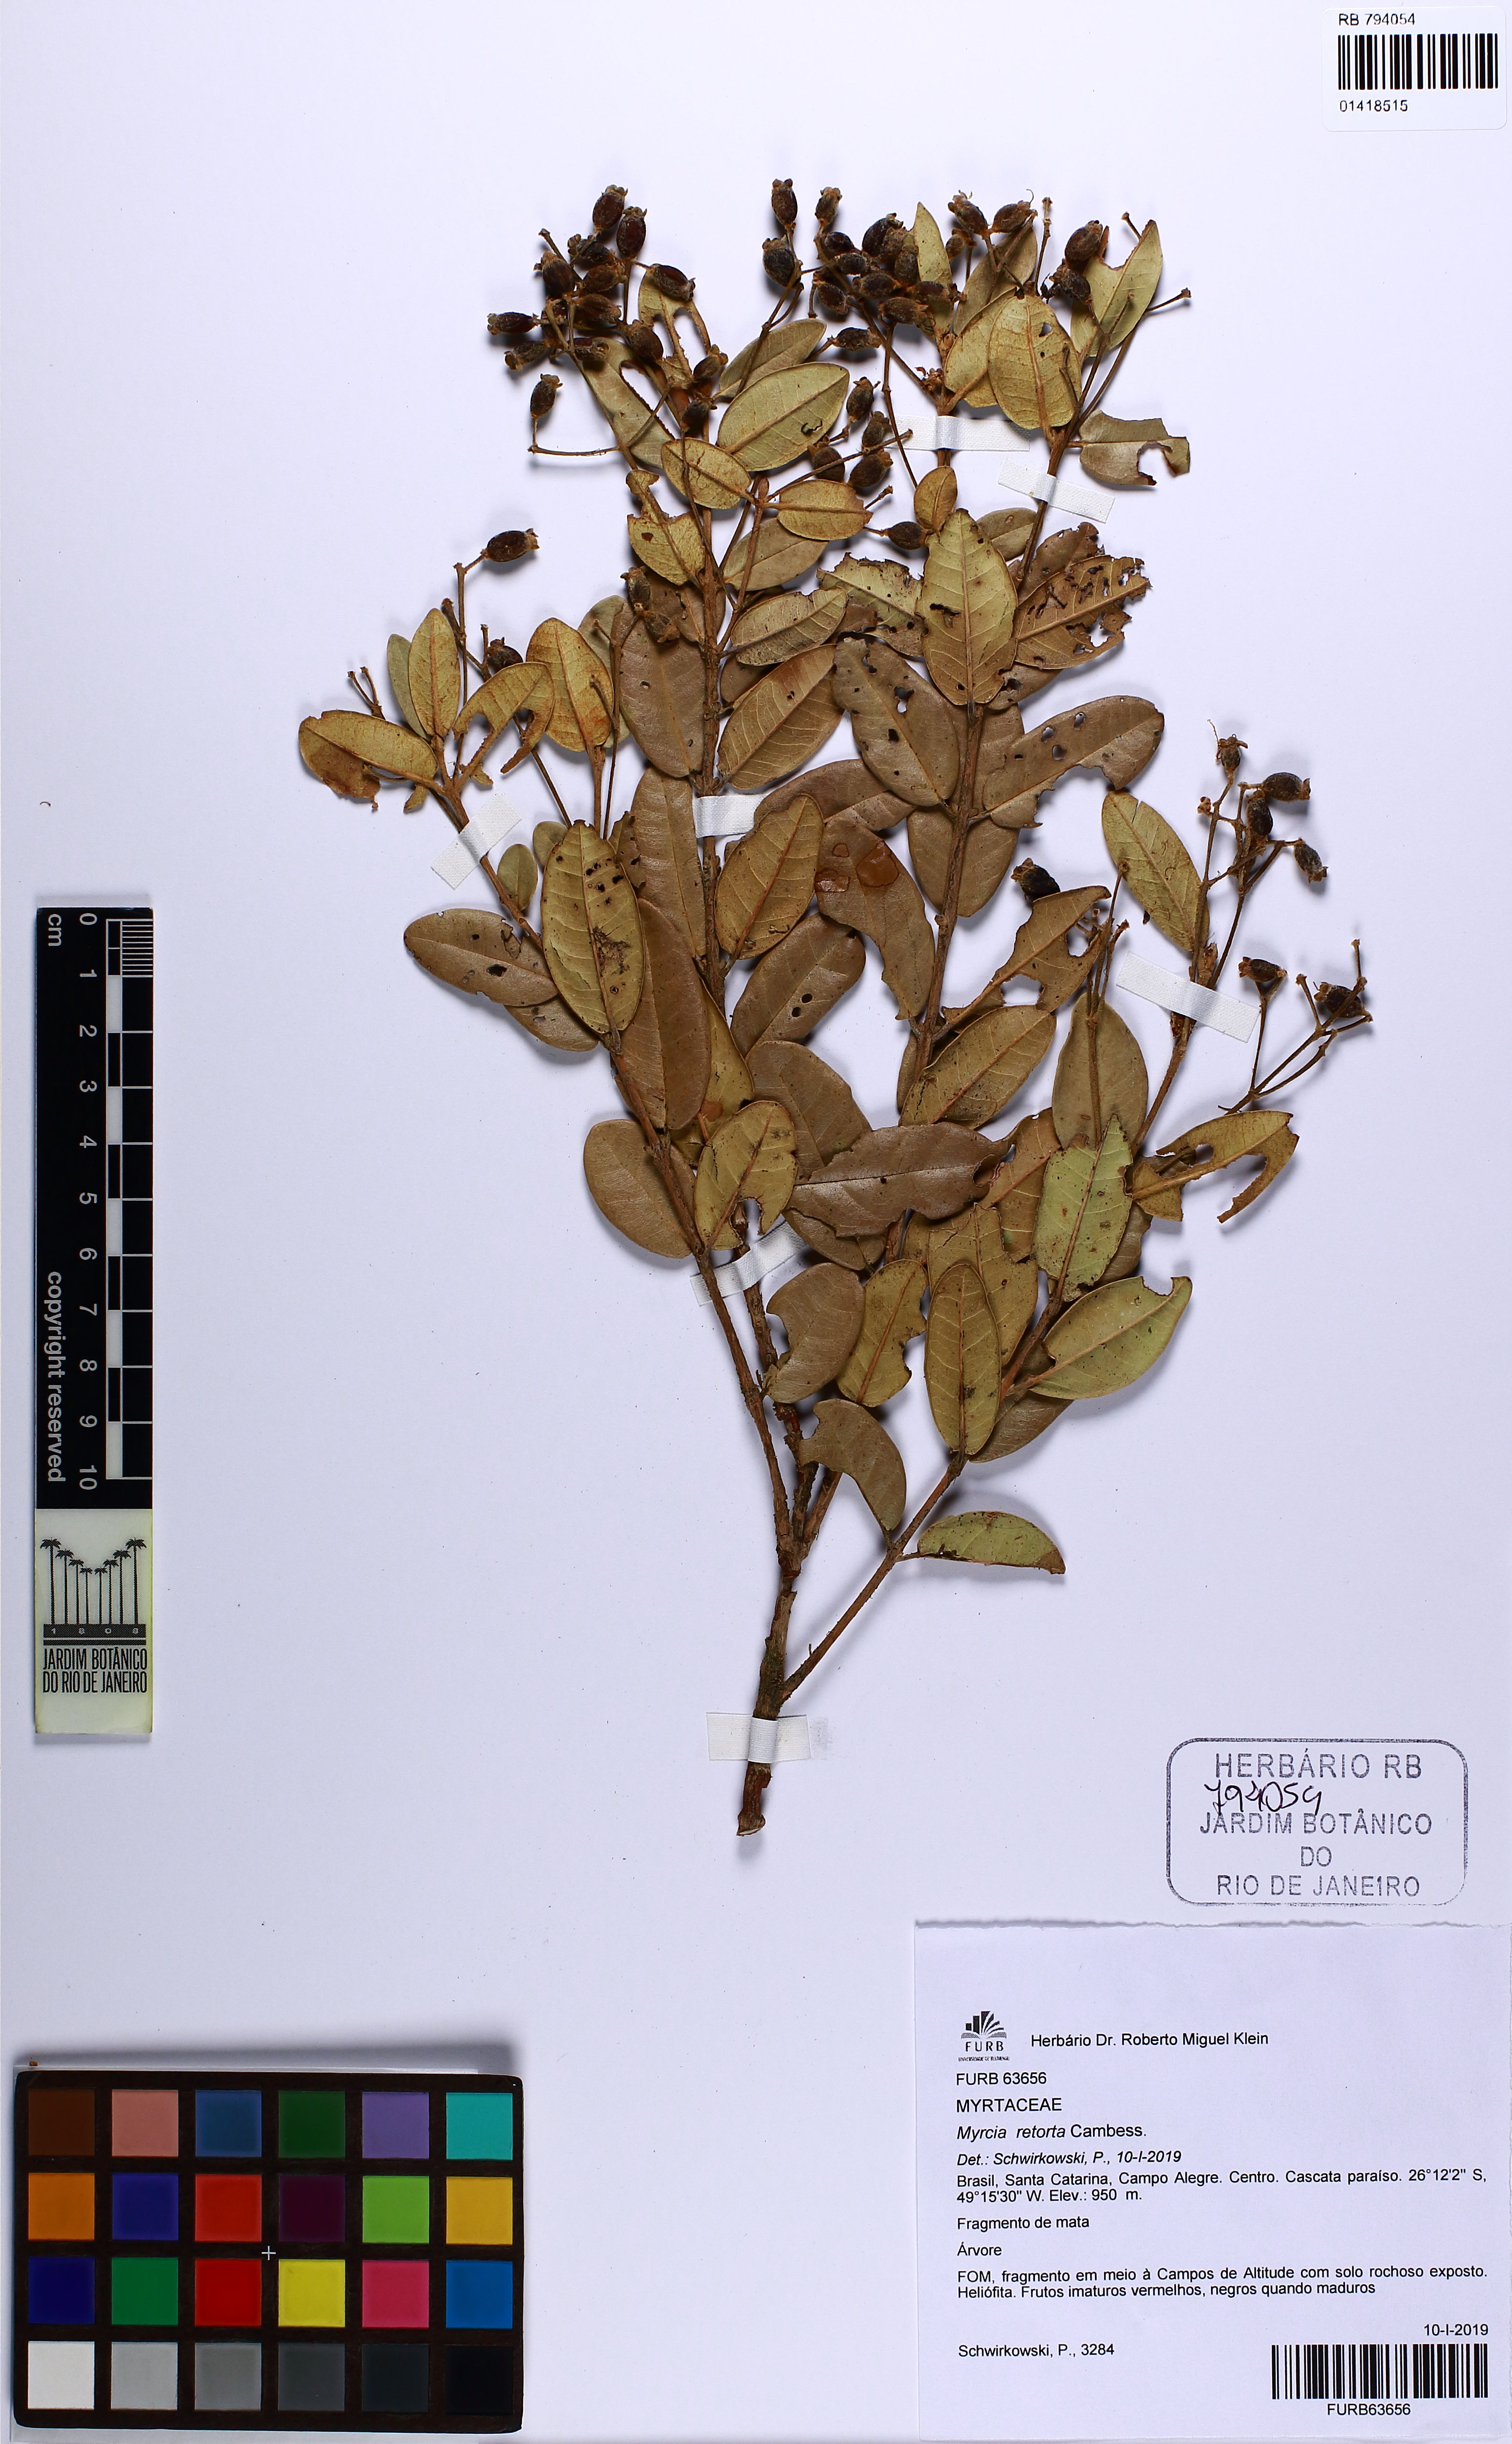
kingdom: Plantae
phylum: Tracheophyta
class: Magnoliopsida
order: Myrtales
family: Myrtaceae
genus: Myrcia
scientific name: Myrcia retorta
